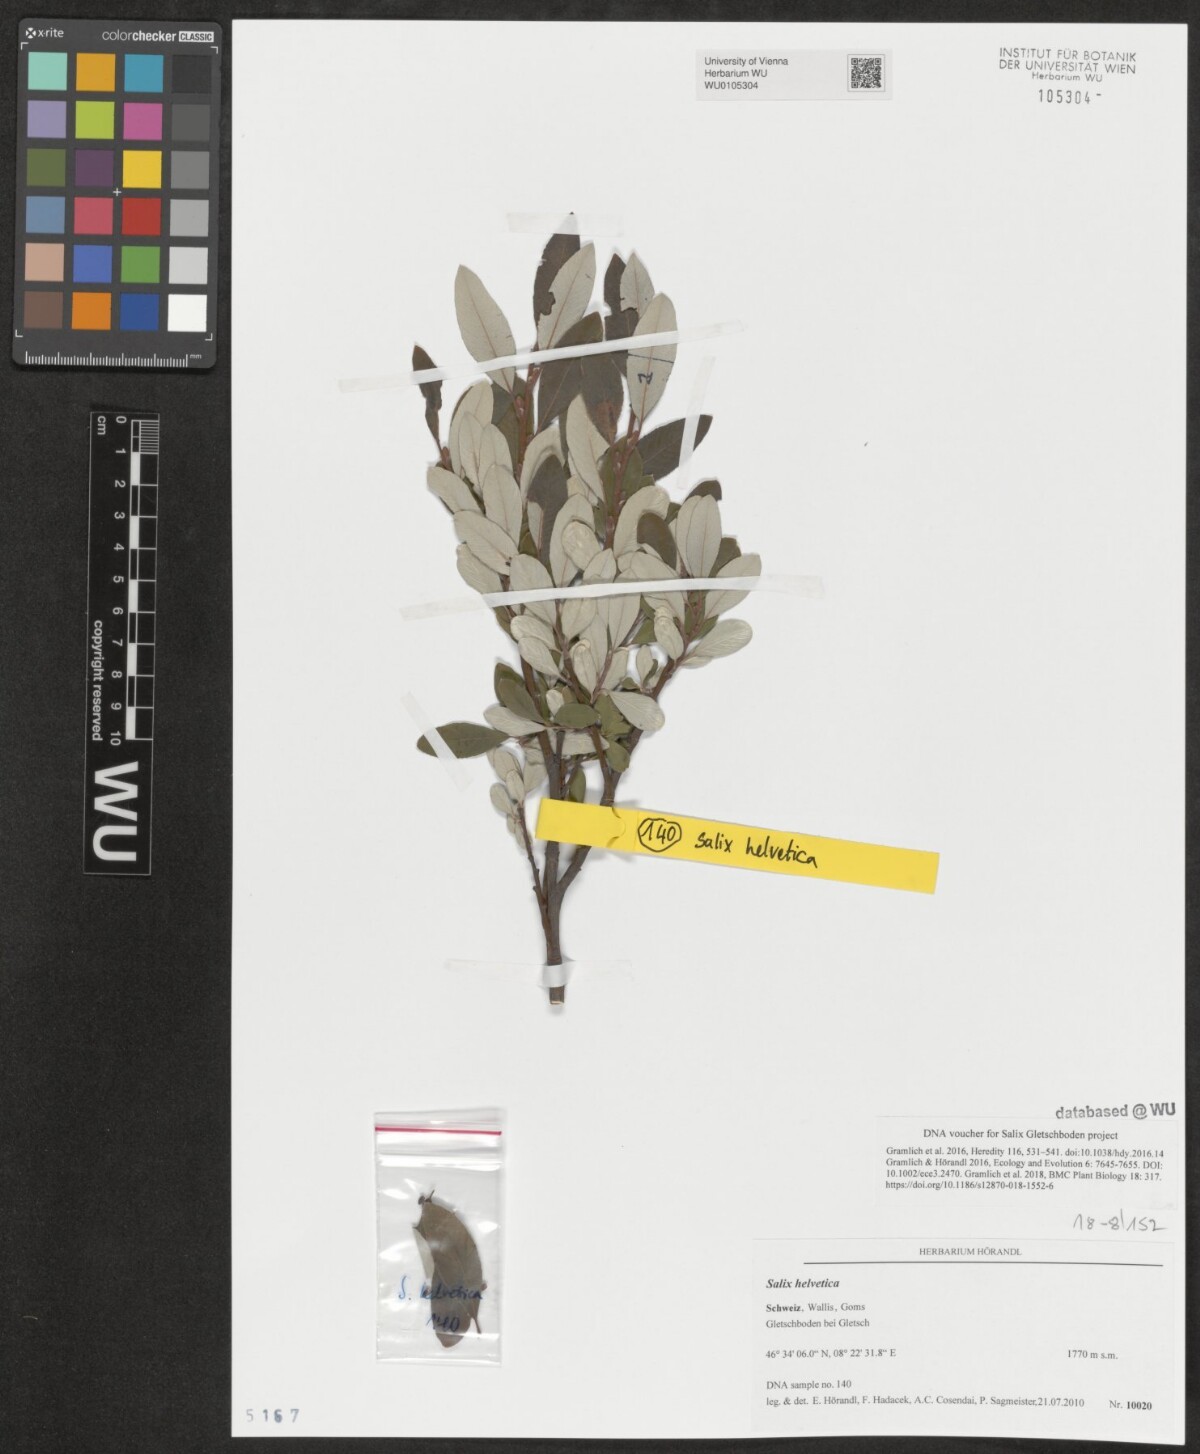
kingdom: Plantae
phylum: Tracheophyta
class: Magnoliopsida
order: Malpighiales
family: Salicaceae
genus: Salix
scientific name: Salix helvetica
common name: Swiss willow
